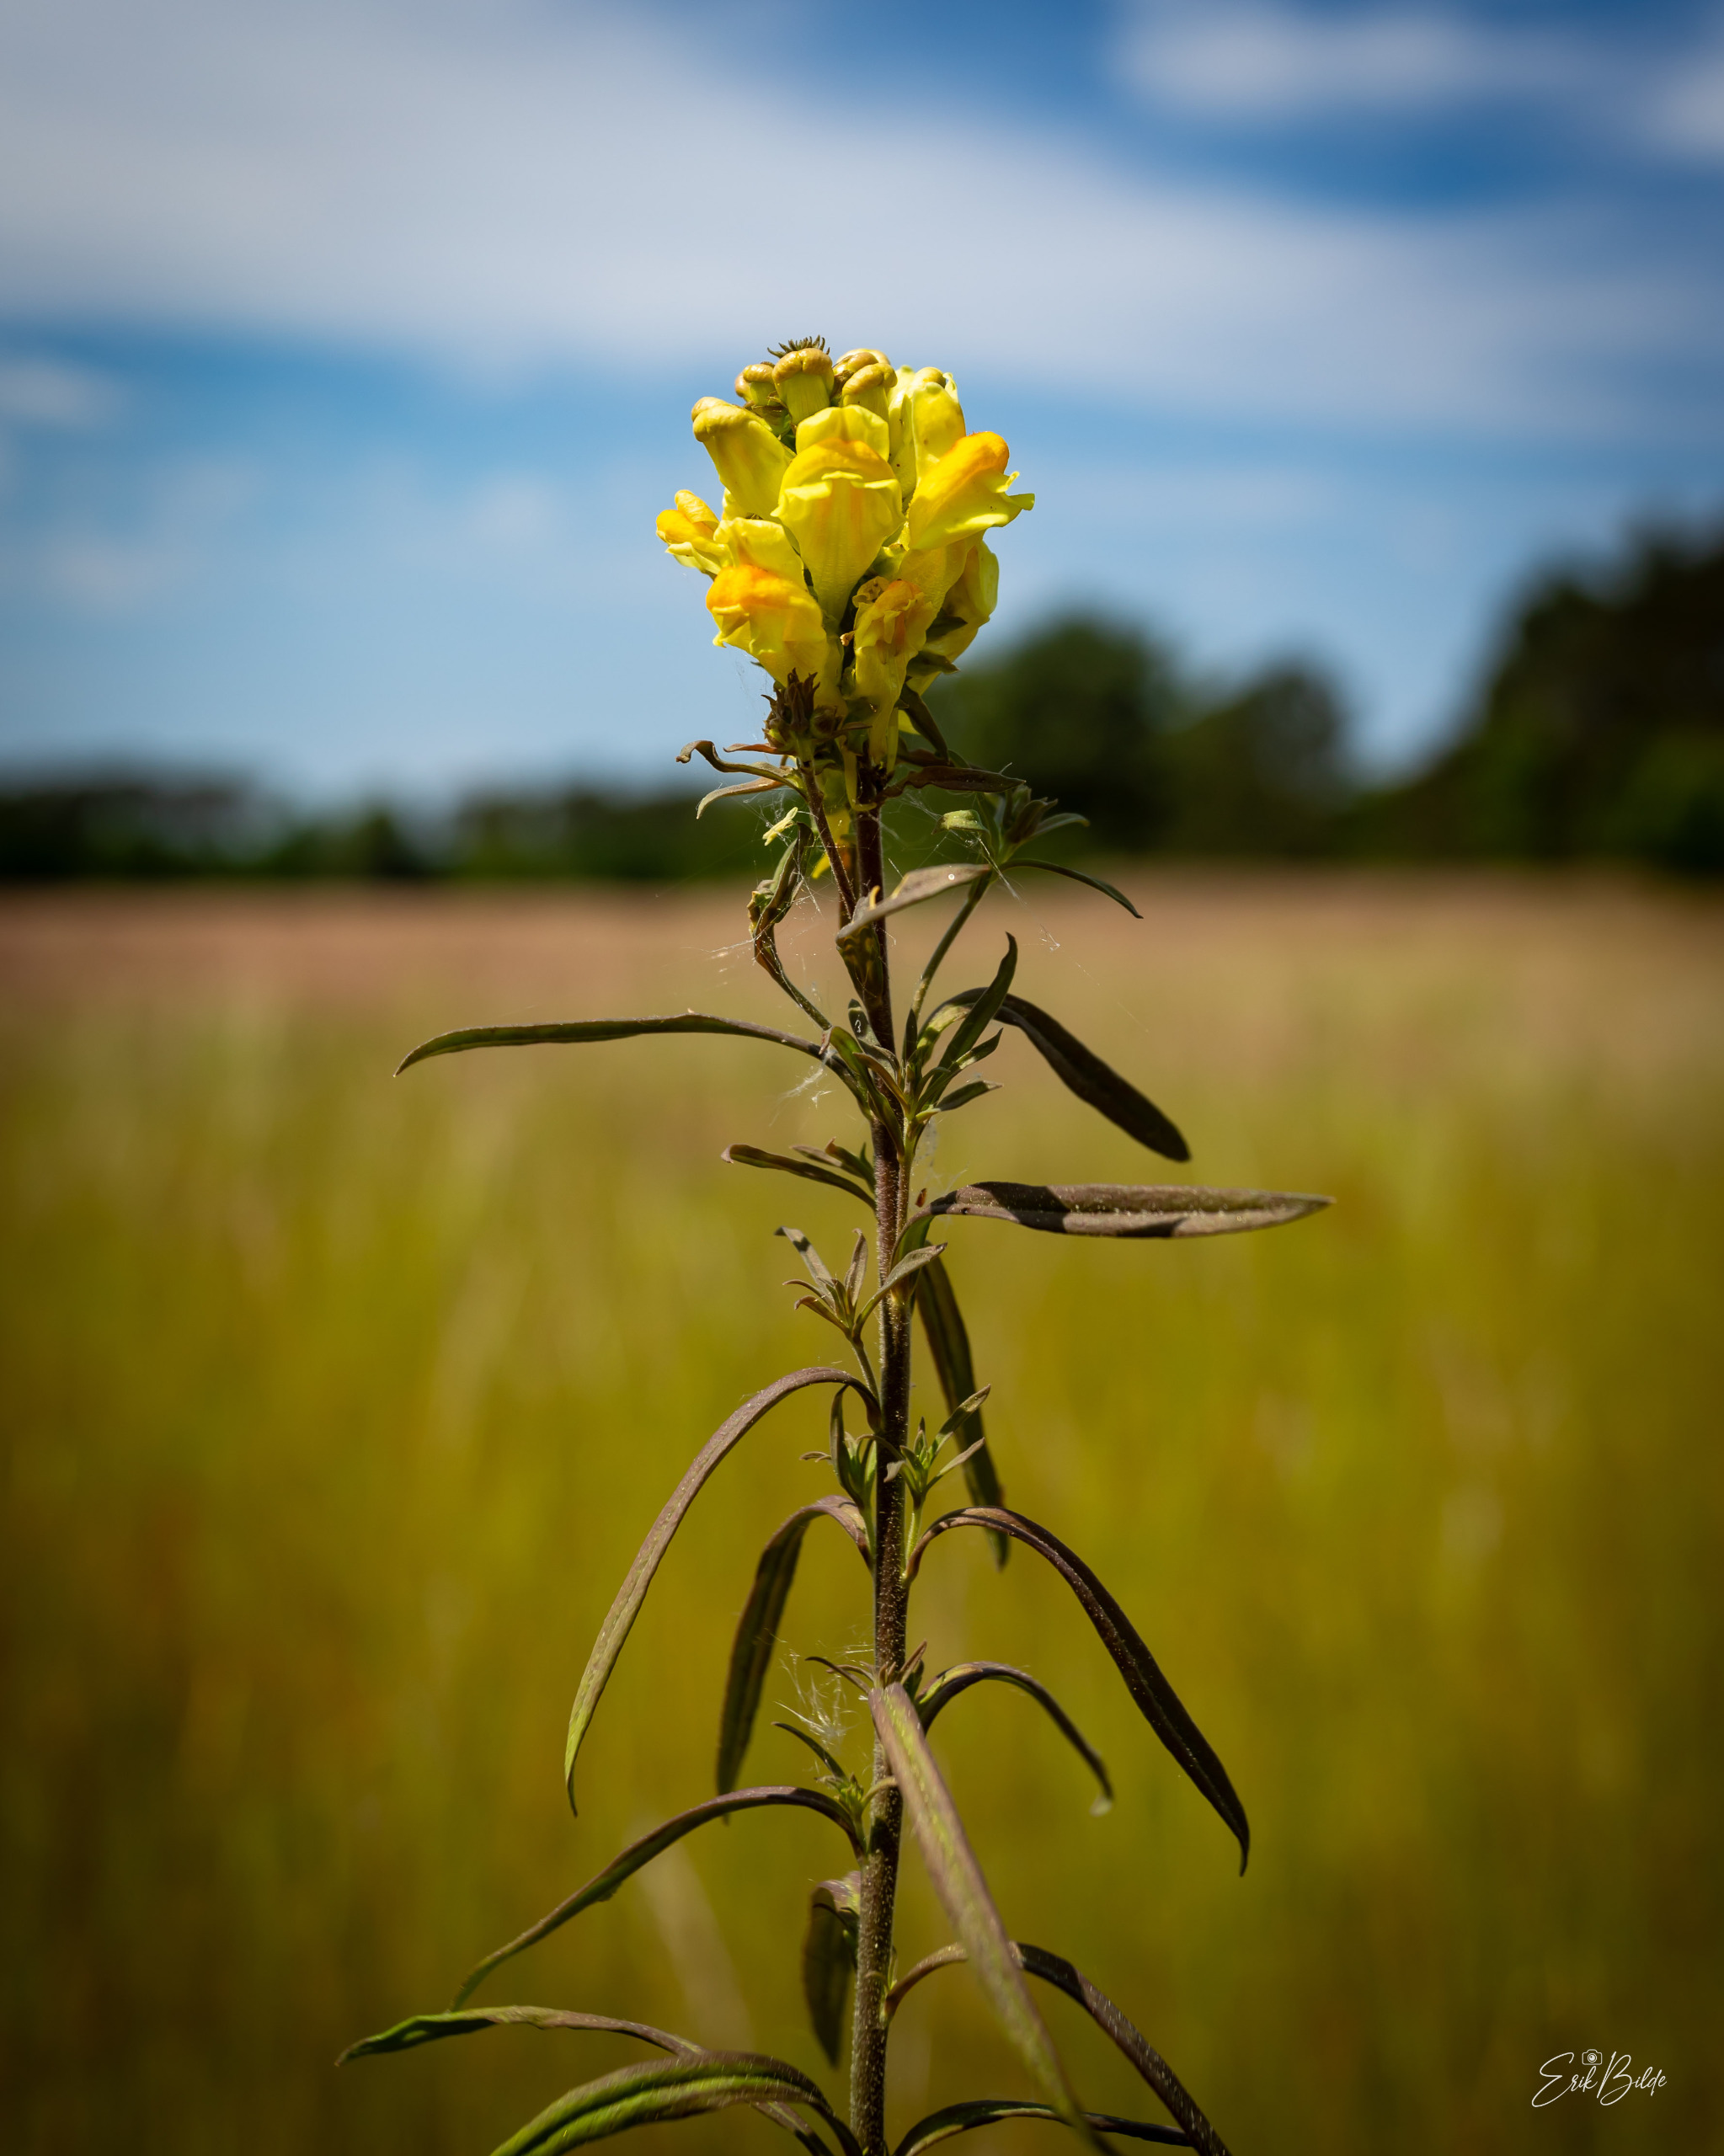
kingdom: Plantae
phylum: Tracheophyta
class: Magnoliopsida
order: Lamiales
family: Plantaginaceae
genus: Linaria
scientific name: Linaria vulgaris
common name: Almindelig torskemund
